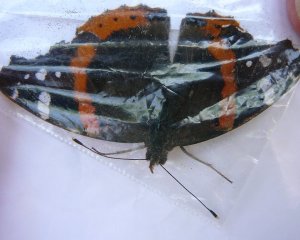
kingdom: Animalia
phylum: Arthropoda
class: Insecta
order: Lepidoptera
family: Nymphalidae
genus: Vanessa
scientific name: Vanessa atalanta
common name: Red Admiral
